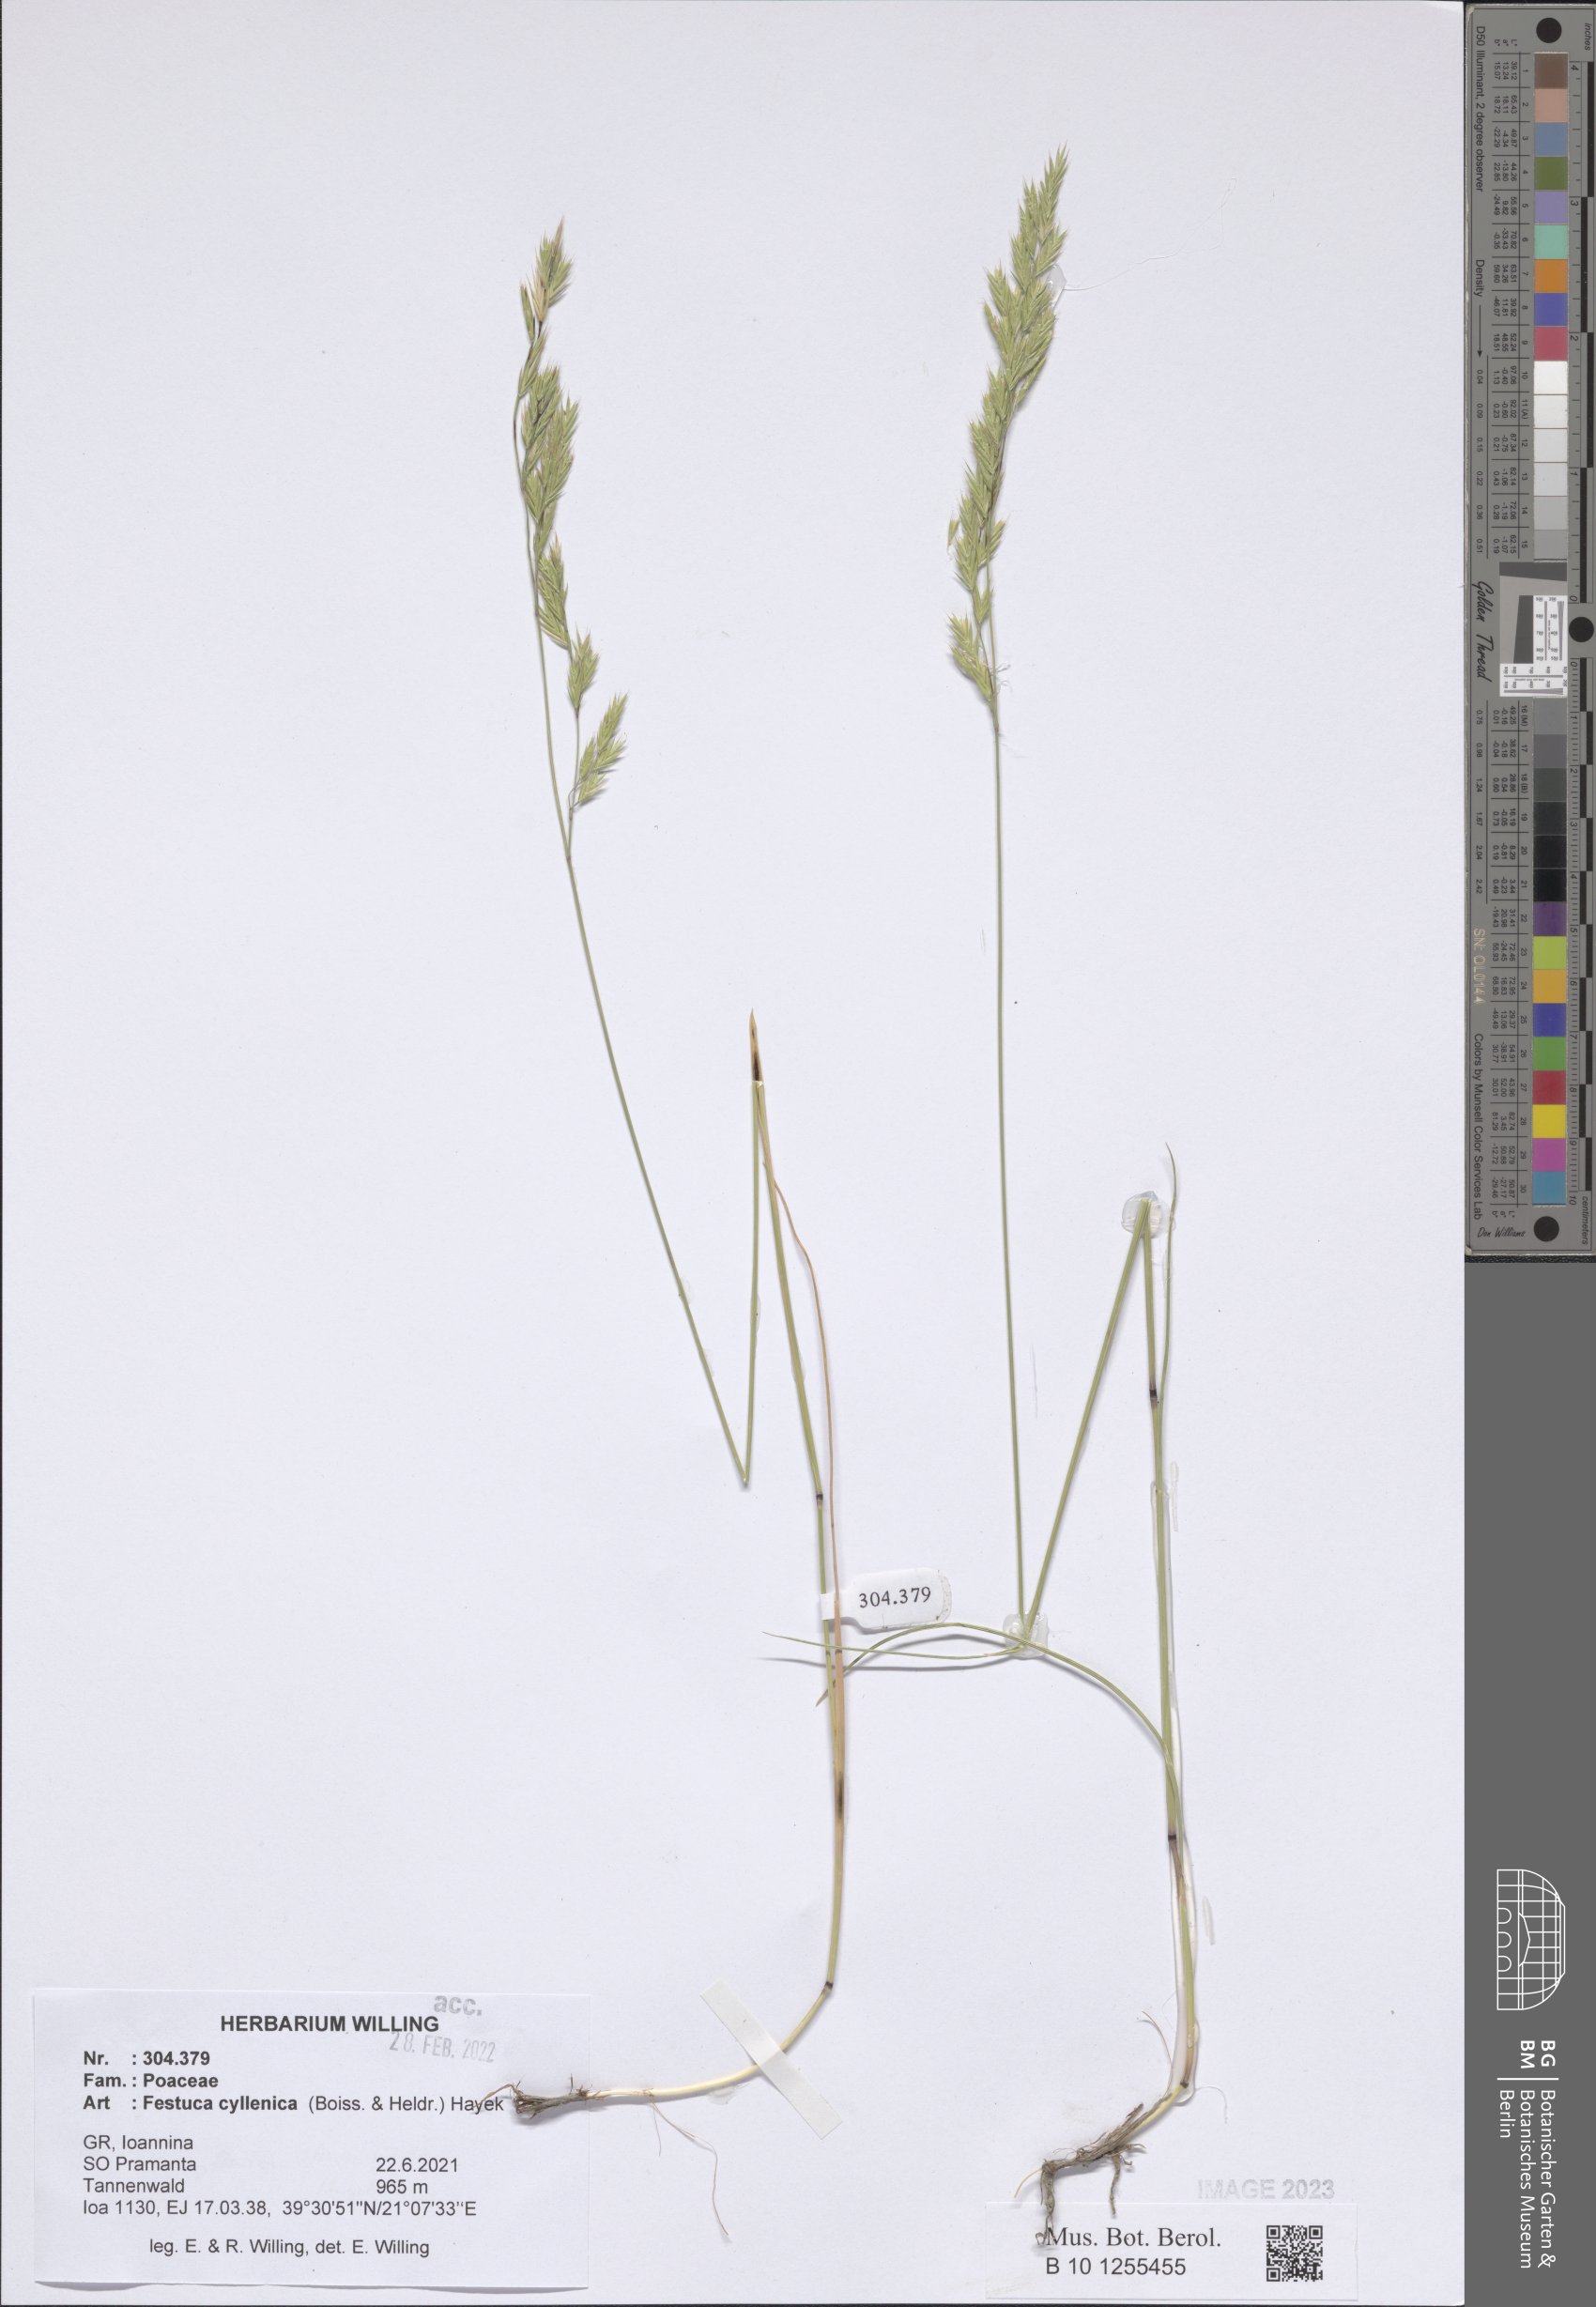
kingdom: Plantae
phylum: Tracheophyta
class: Liliopsida
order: Poales
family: Poaceae
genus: Festuca
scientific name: Festuca cyllenica
